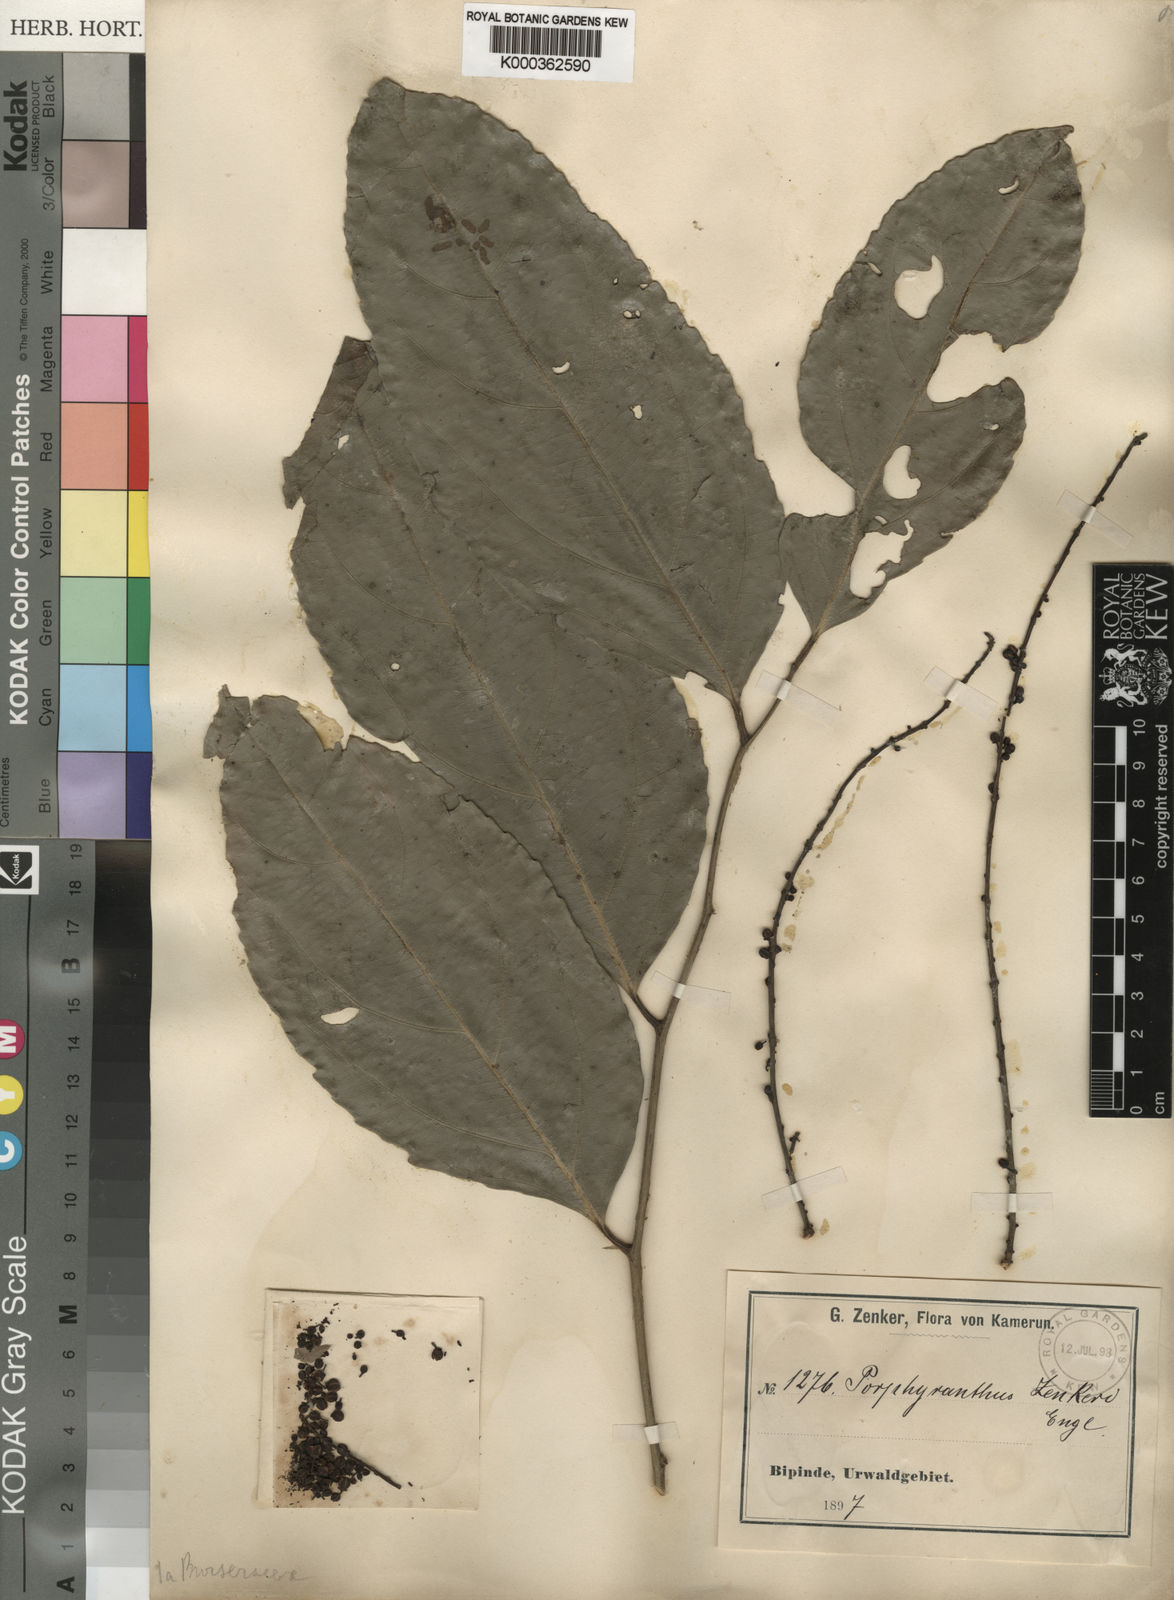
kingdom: Plantae
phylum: Tracheophyta
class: Magnoliopsida
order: Malpighiales
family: Pandaceae
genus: Microdesmis
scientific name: Microdesmis
